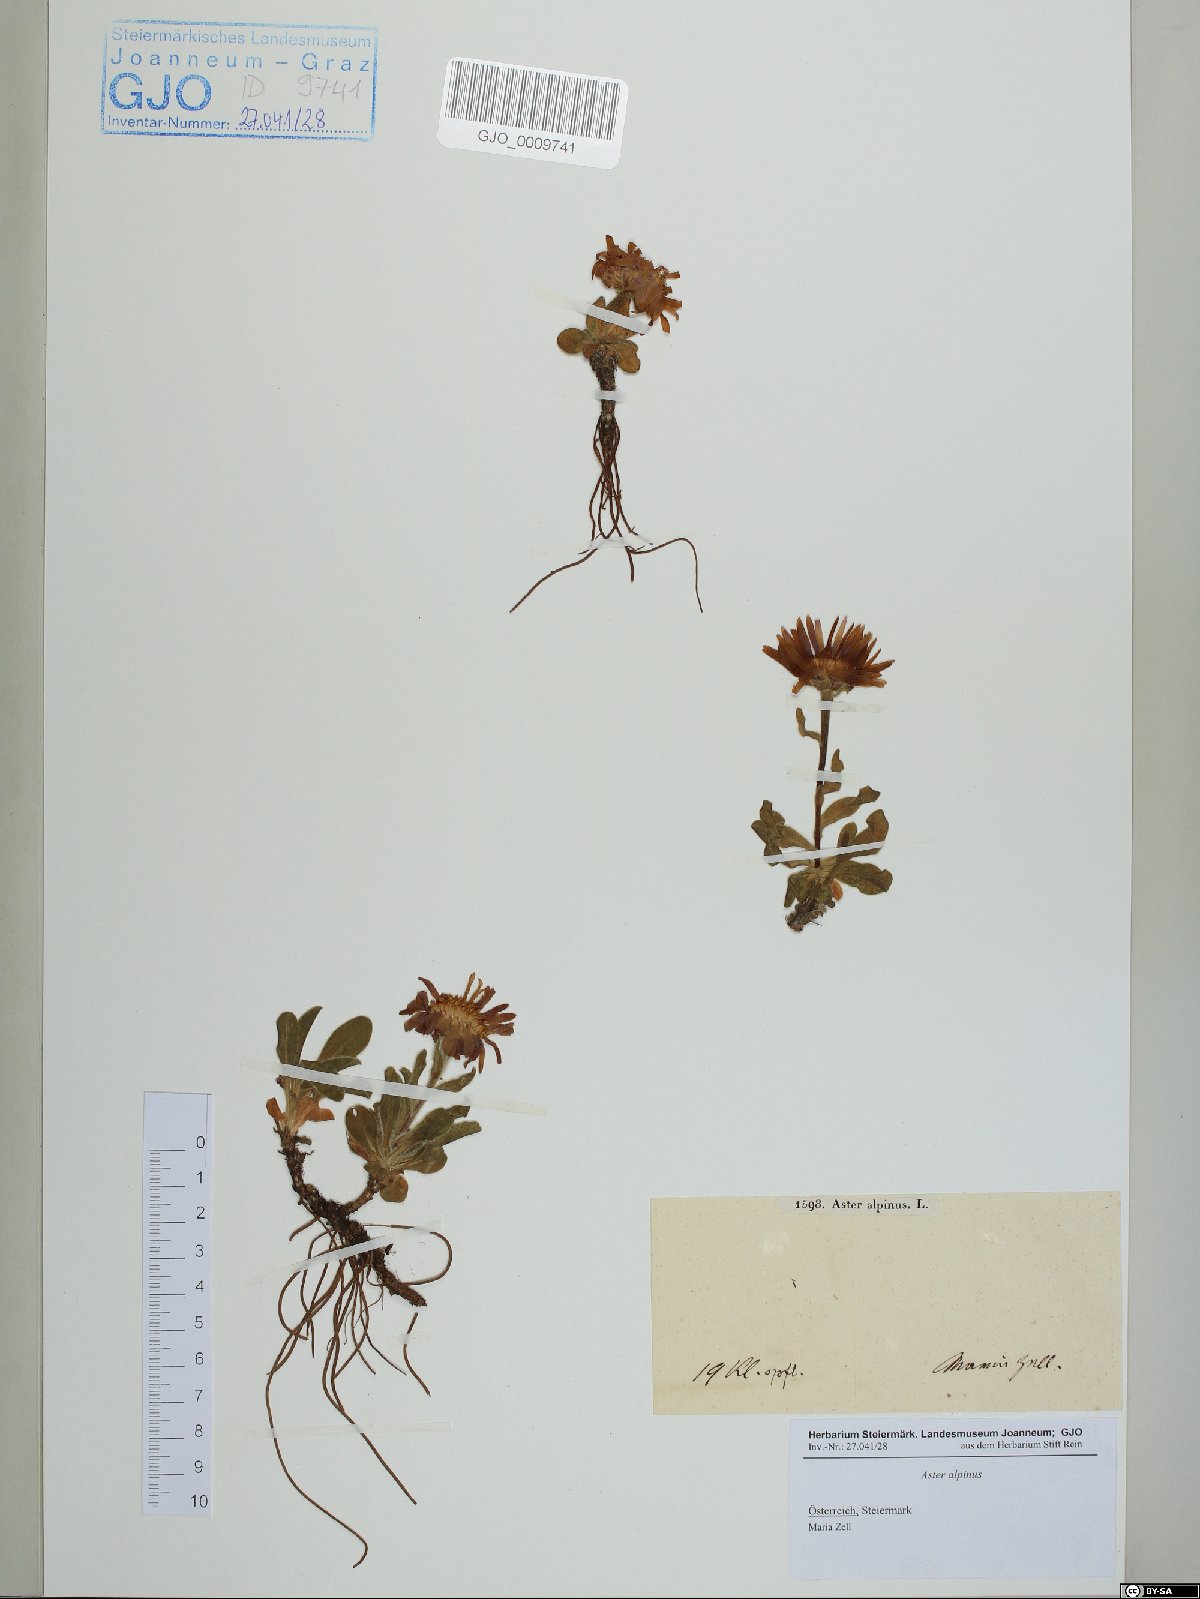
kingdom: Plantae
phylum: Tracheophyta
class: Magnoliopsida
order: Asterales
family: Asteraceae
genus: Aster
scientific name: Aster alpinus
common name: Alpine aster
